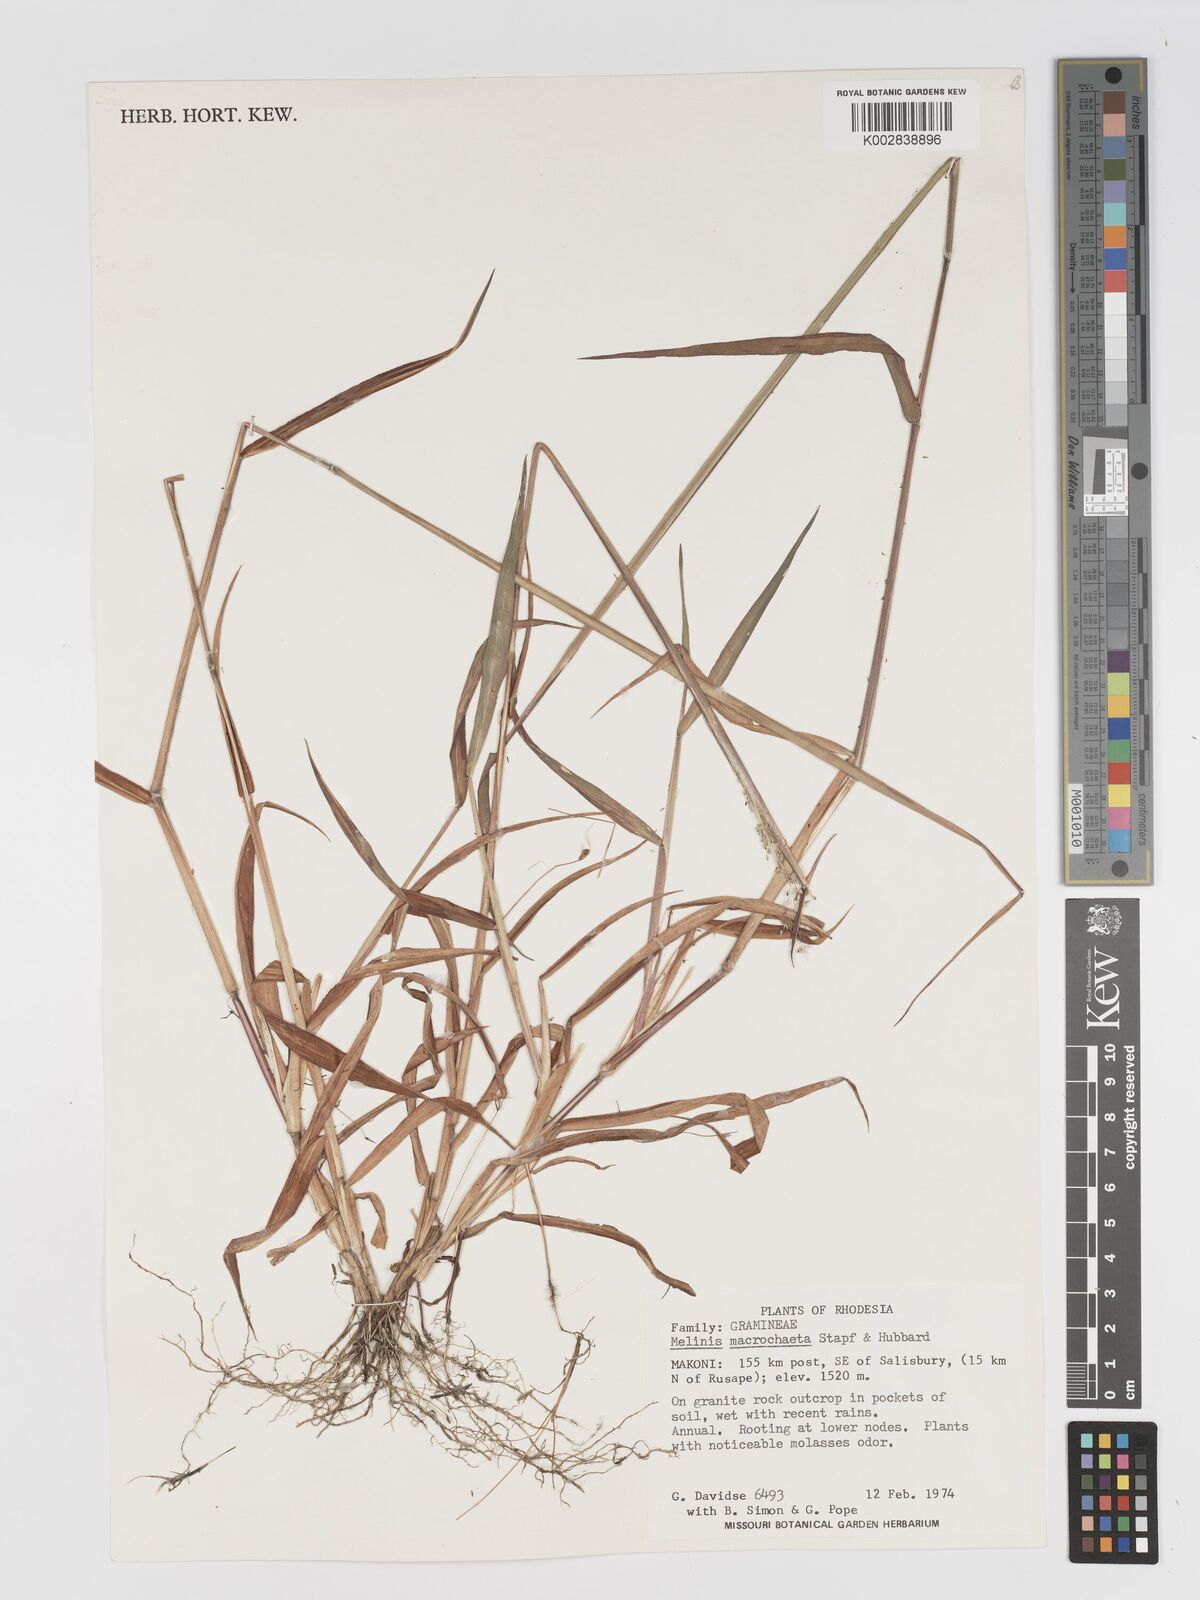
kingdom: Plantae
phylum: Tracheophyta
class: Liliopsida
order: Poales
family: Poaceae
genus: Melinis
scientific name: Melinis macrochaeta
